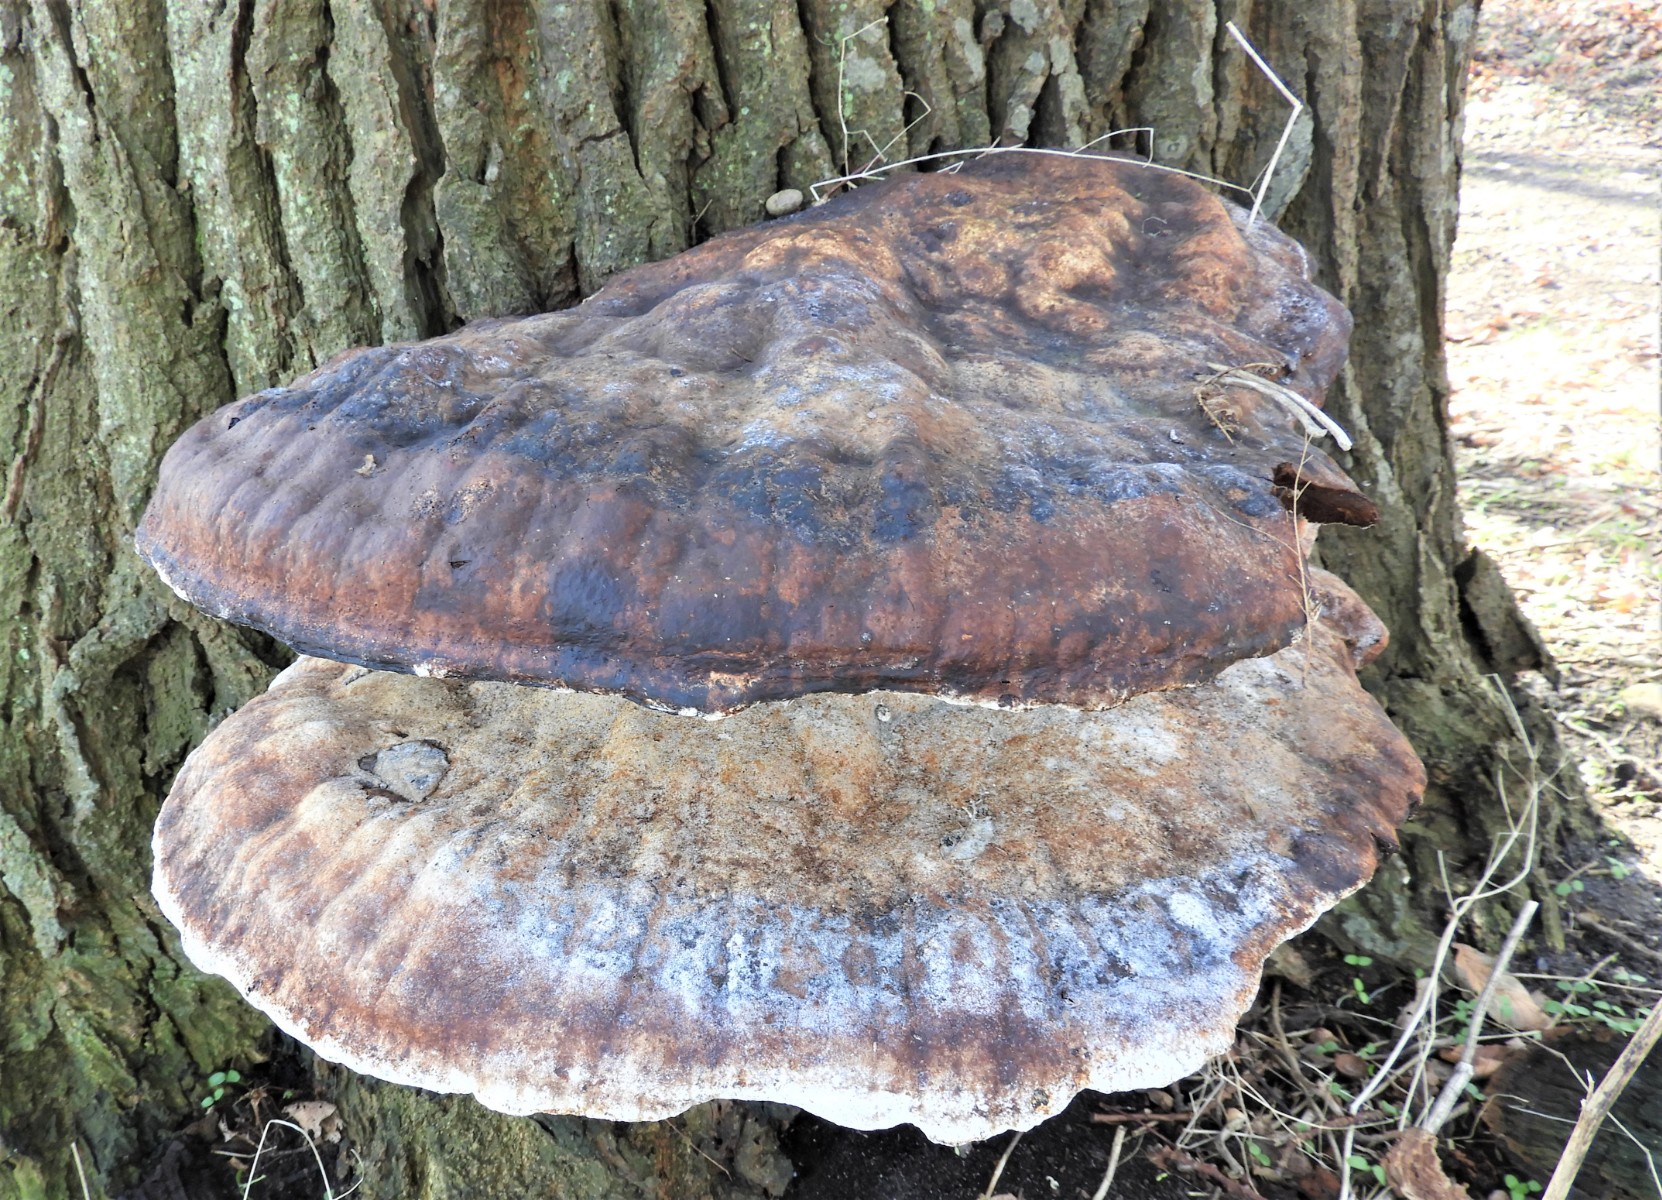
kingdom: Fungi
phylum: Basidiomycota
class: Agaricomycetes
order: Hymenochaetales
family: Hymenochaetaceae
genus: Pseudoinonotus
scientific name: Pseudoinonotus dryadeus
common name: ege-spejlporesvamp
